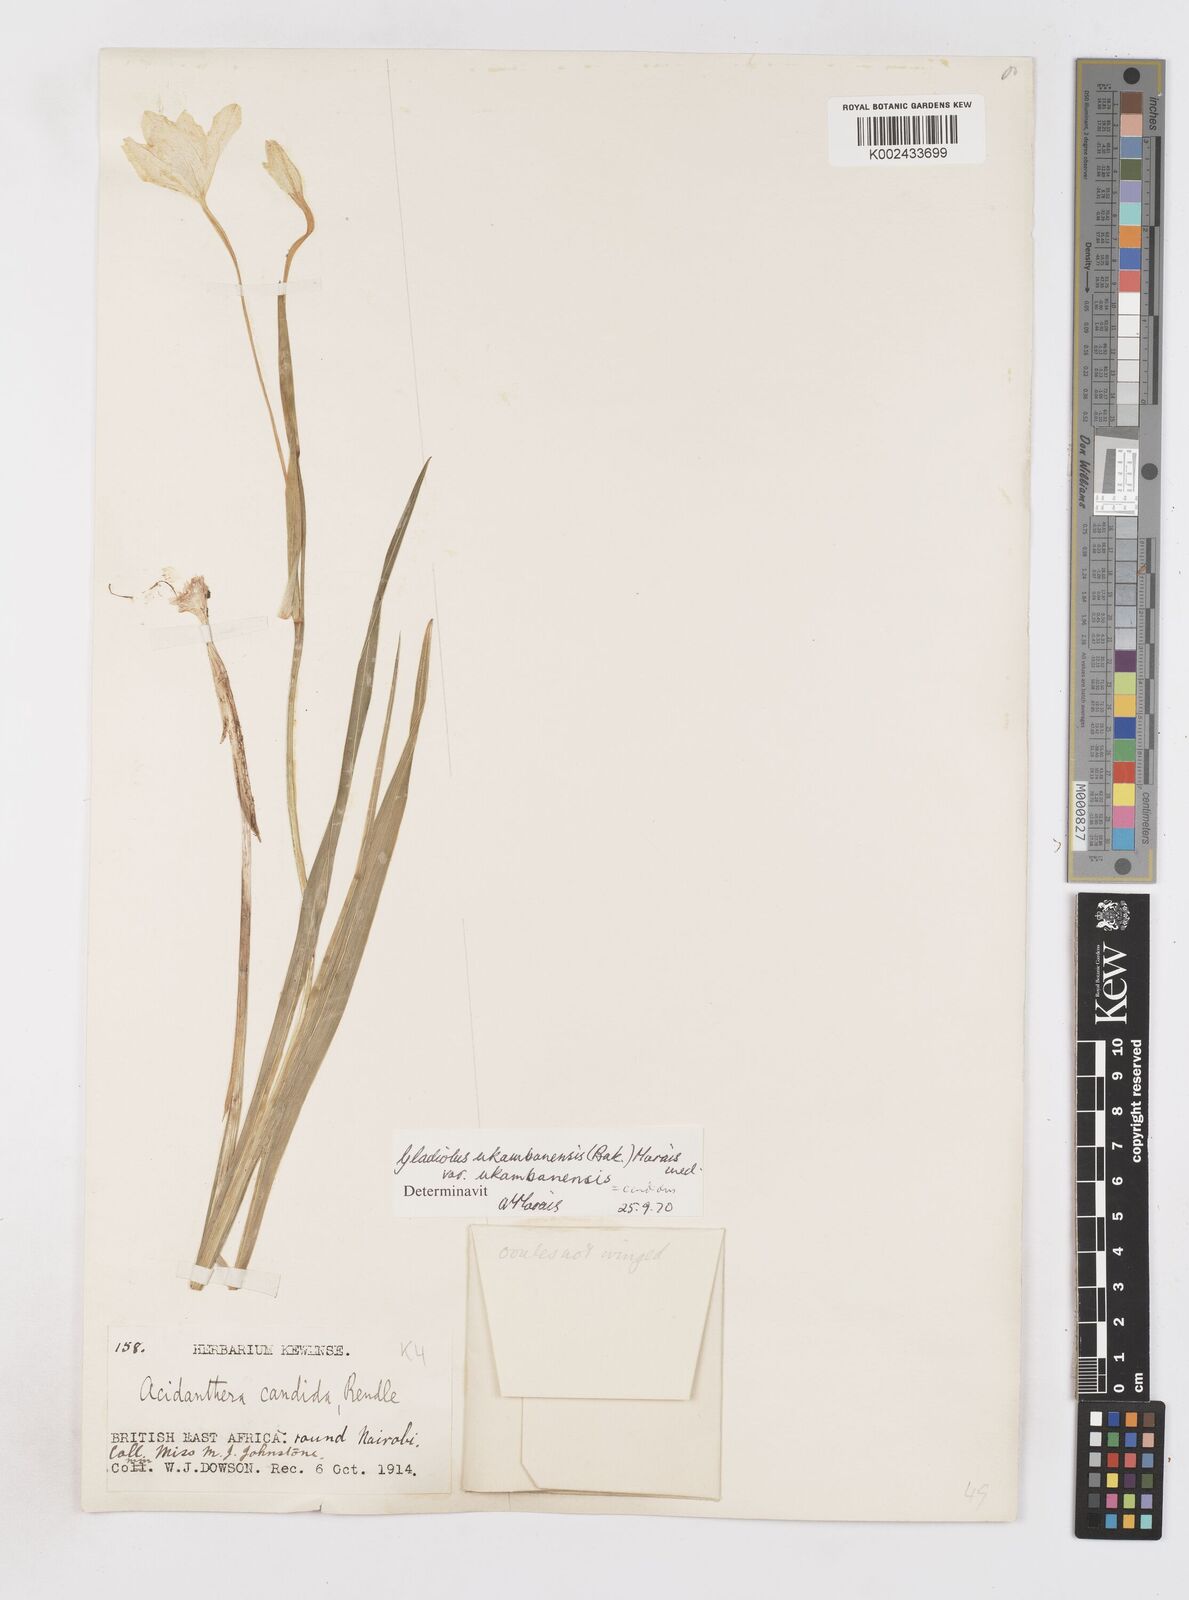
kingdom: Plantae
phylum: Tracheophyta
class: Liliopsida
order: Asparagales
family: Iridaceae
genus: Gladiolus
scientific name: Gladiolus candidus
